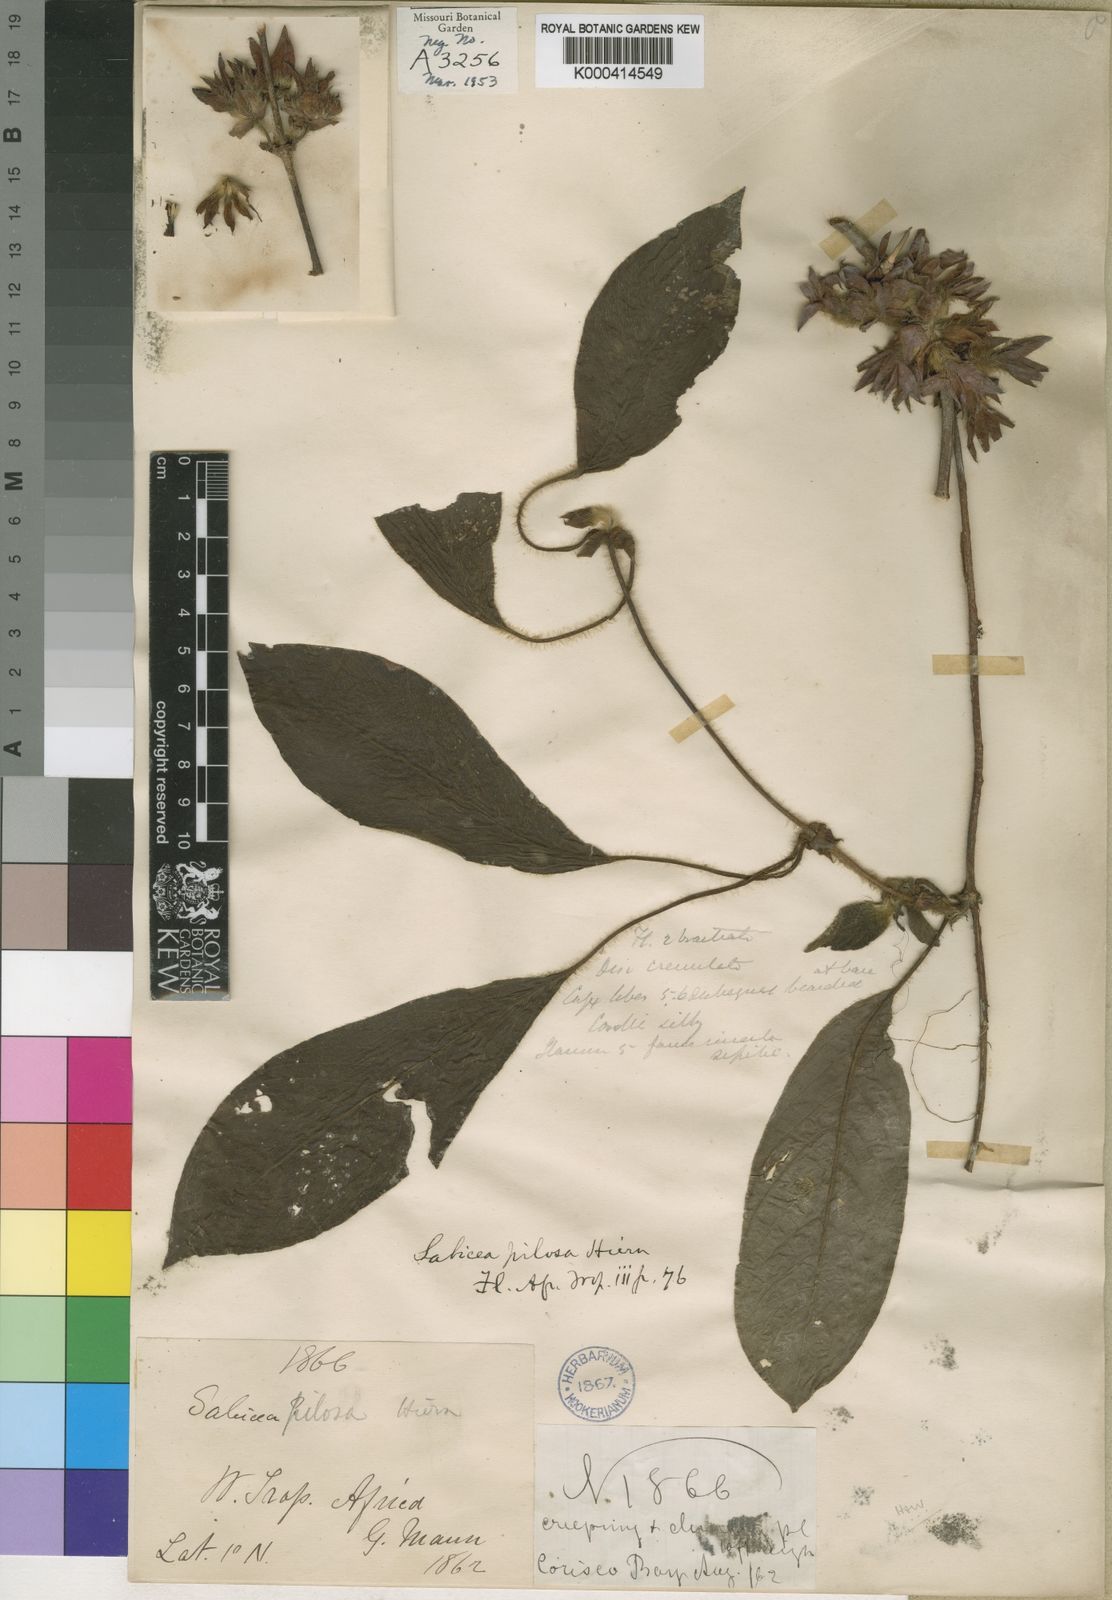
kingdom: Plantae
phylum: Tracheophyta
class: Magnoliopsida
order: Gentianales
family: Rubiaceae
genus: Sabicea
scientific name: Sabicea pilosa
